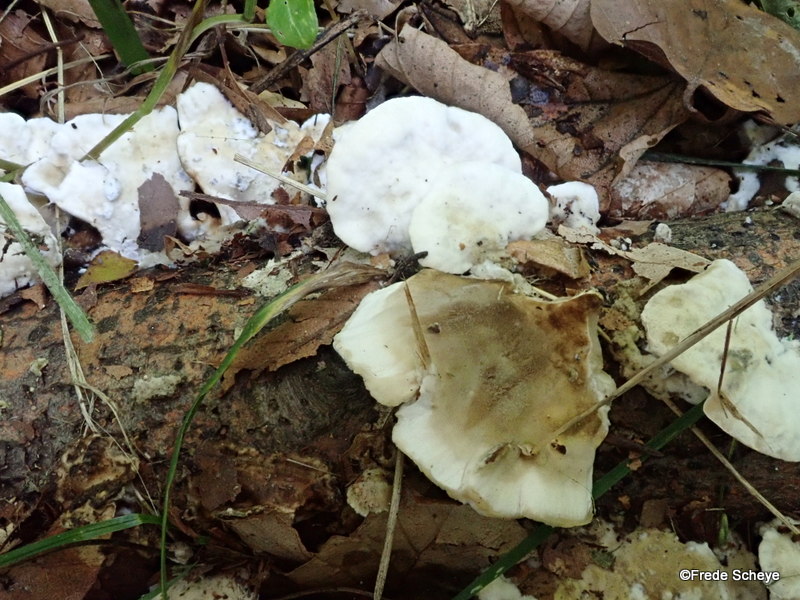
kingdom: Fungi
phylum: Basidiomycota
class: Agaricomycetes
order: Polyporales
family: Phanerochaetaceae
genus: Bjerkandera
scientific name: Bjerkandera adusta
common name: sveden sodporesvamp
